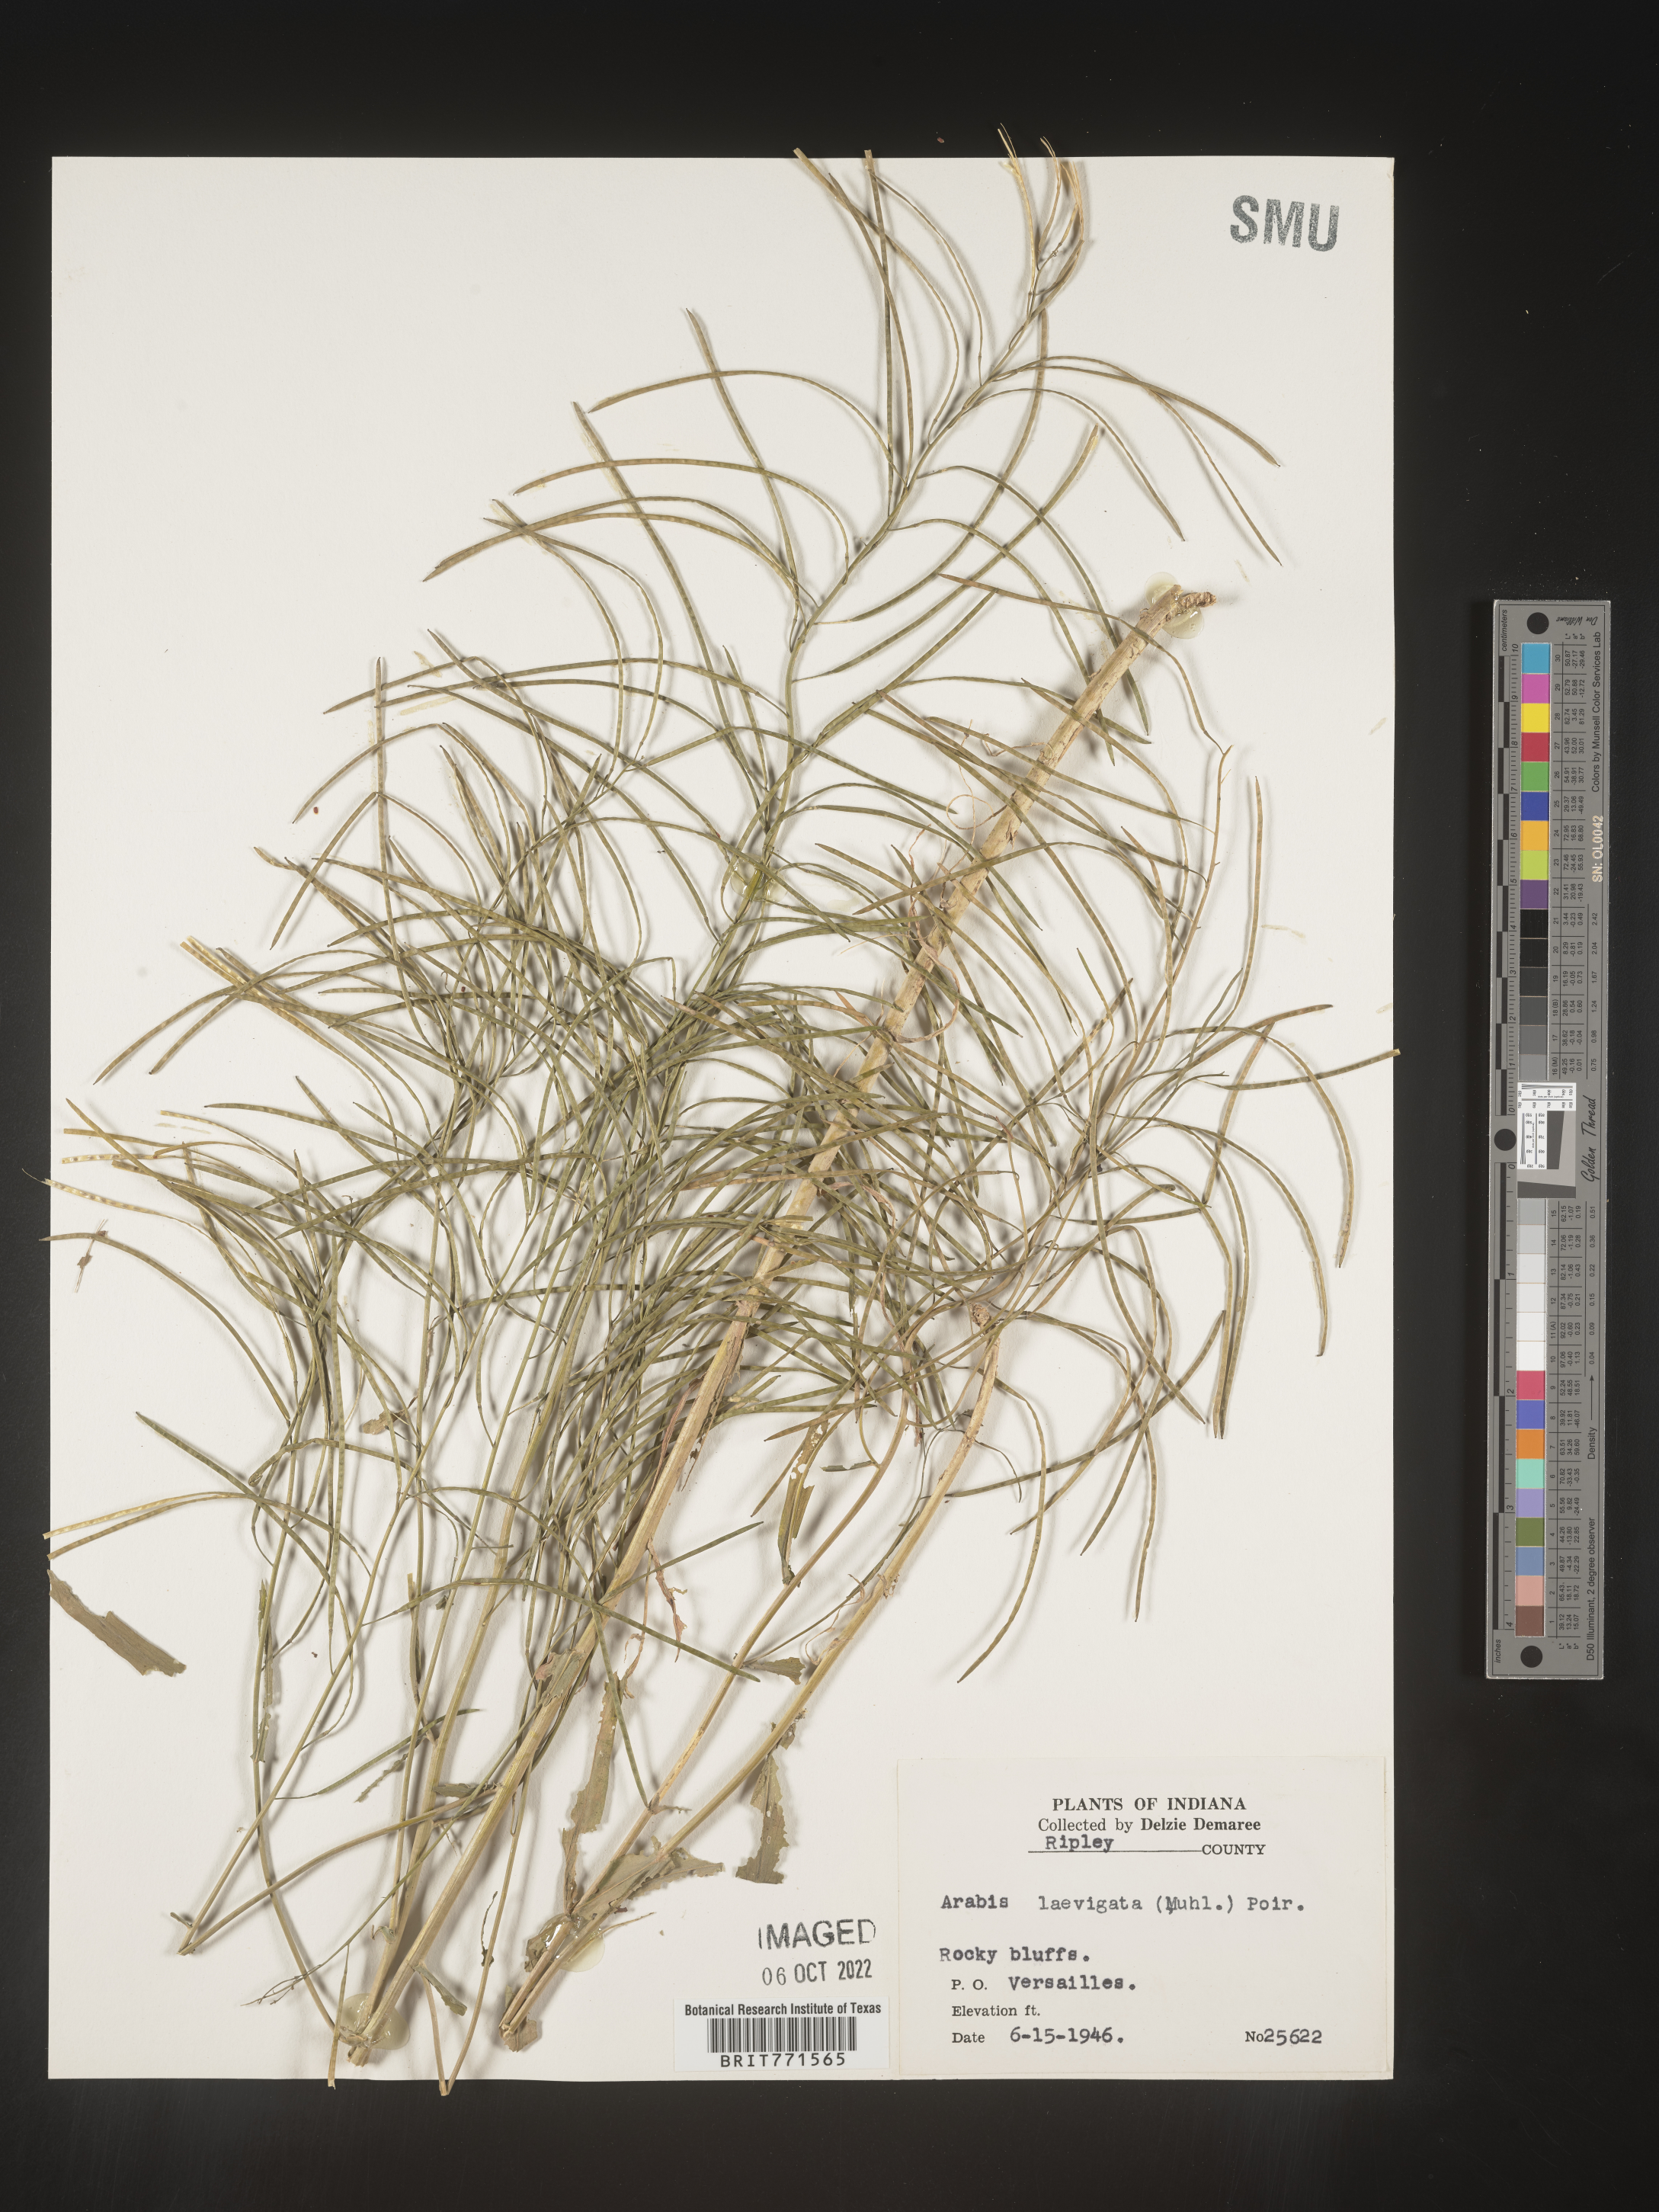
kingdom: Plantae
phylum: Tracheophyta
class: Magnoliopsida
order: Brassicales
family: Brassicaceae
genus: Arabis
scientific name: Arabis laevigata
